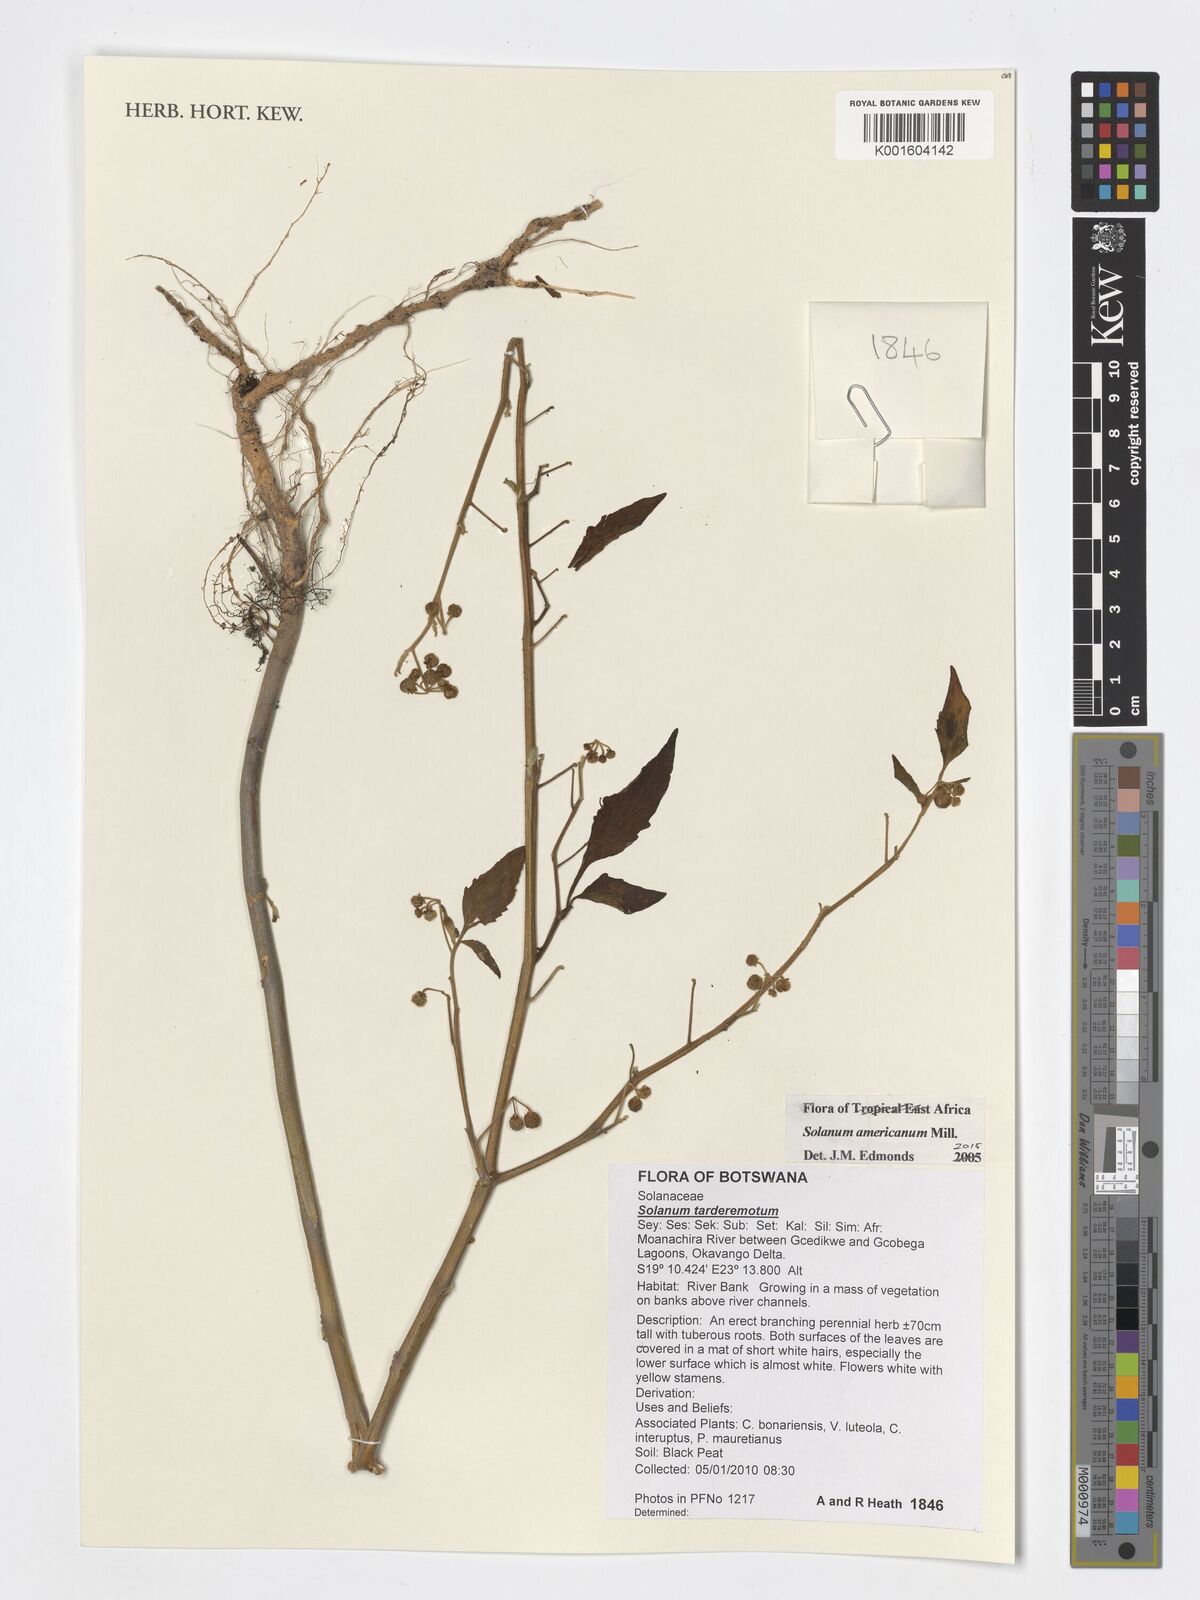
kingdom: Plantae
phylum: Tracheophyta
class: Magnoliopsida
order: Solanales
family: Solanaceae
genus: Solanum
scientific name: Solanum americanum
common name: American black nightshade
